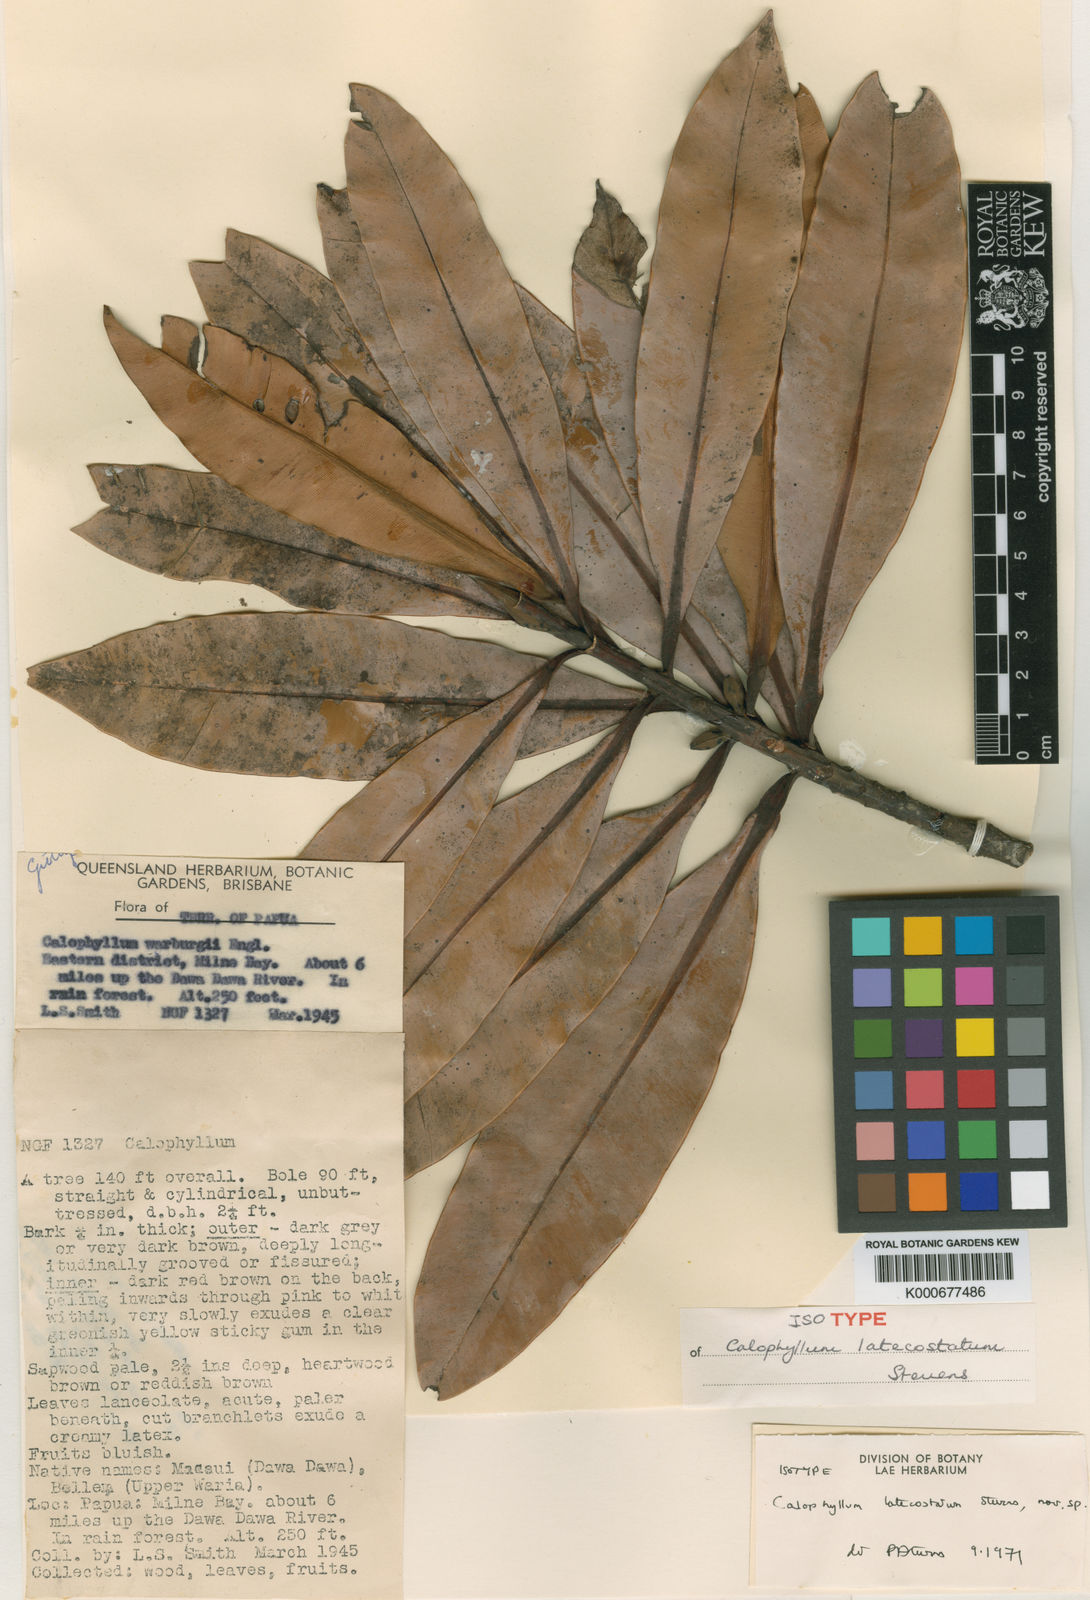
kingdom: Plantae
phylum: Tracheophyta
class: Magnoliopsida
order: Malpighiales
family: Calophyllaceae
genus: Calophyllum
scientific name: Calophyllum laticostatum
